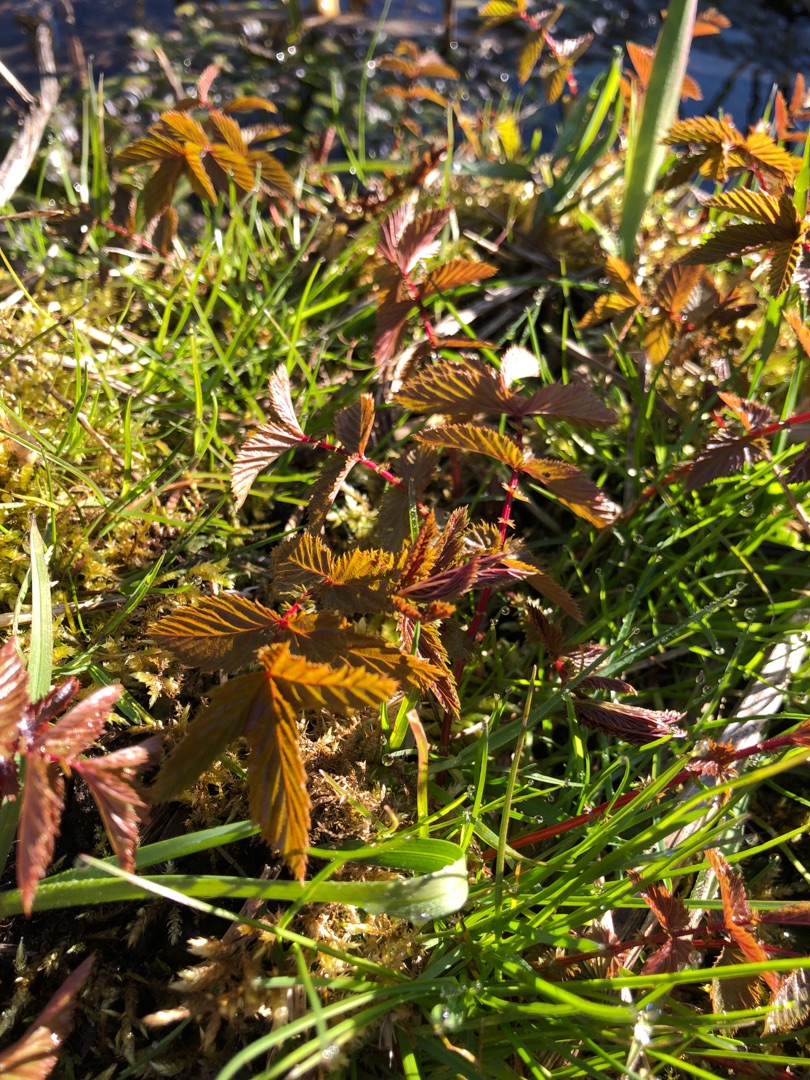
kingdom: Plantae
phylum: Tracheophyta
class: Magnoliopsida
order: Rosales
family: Rosaceae
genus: Filipendula
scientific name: Filipendula ulmaria
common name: Almindelig mjødurt
